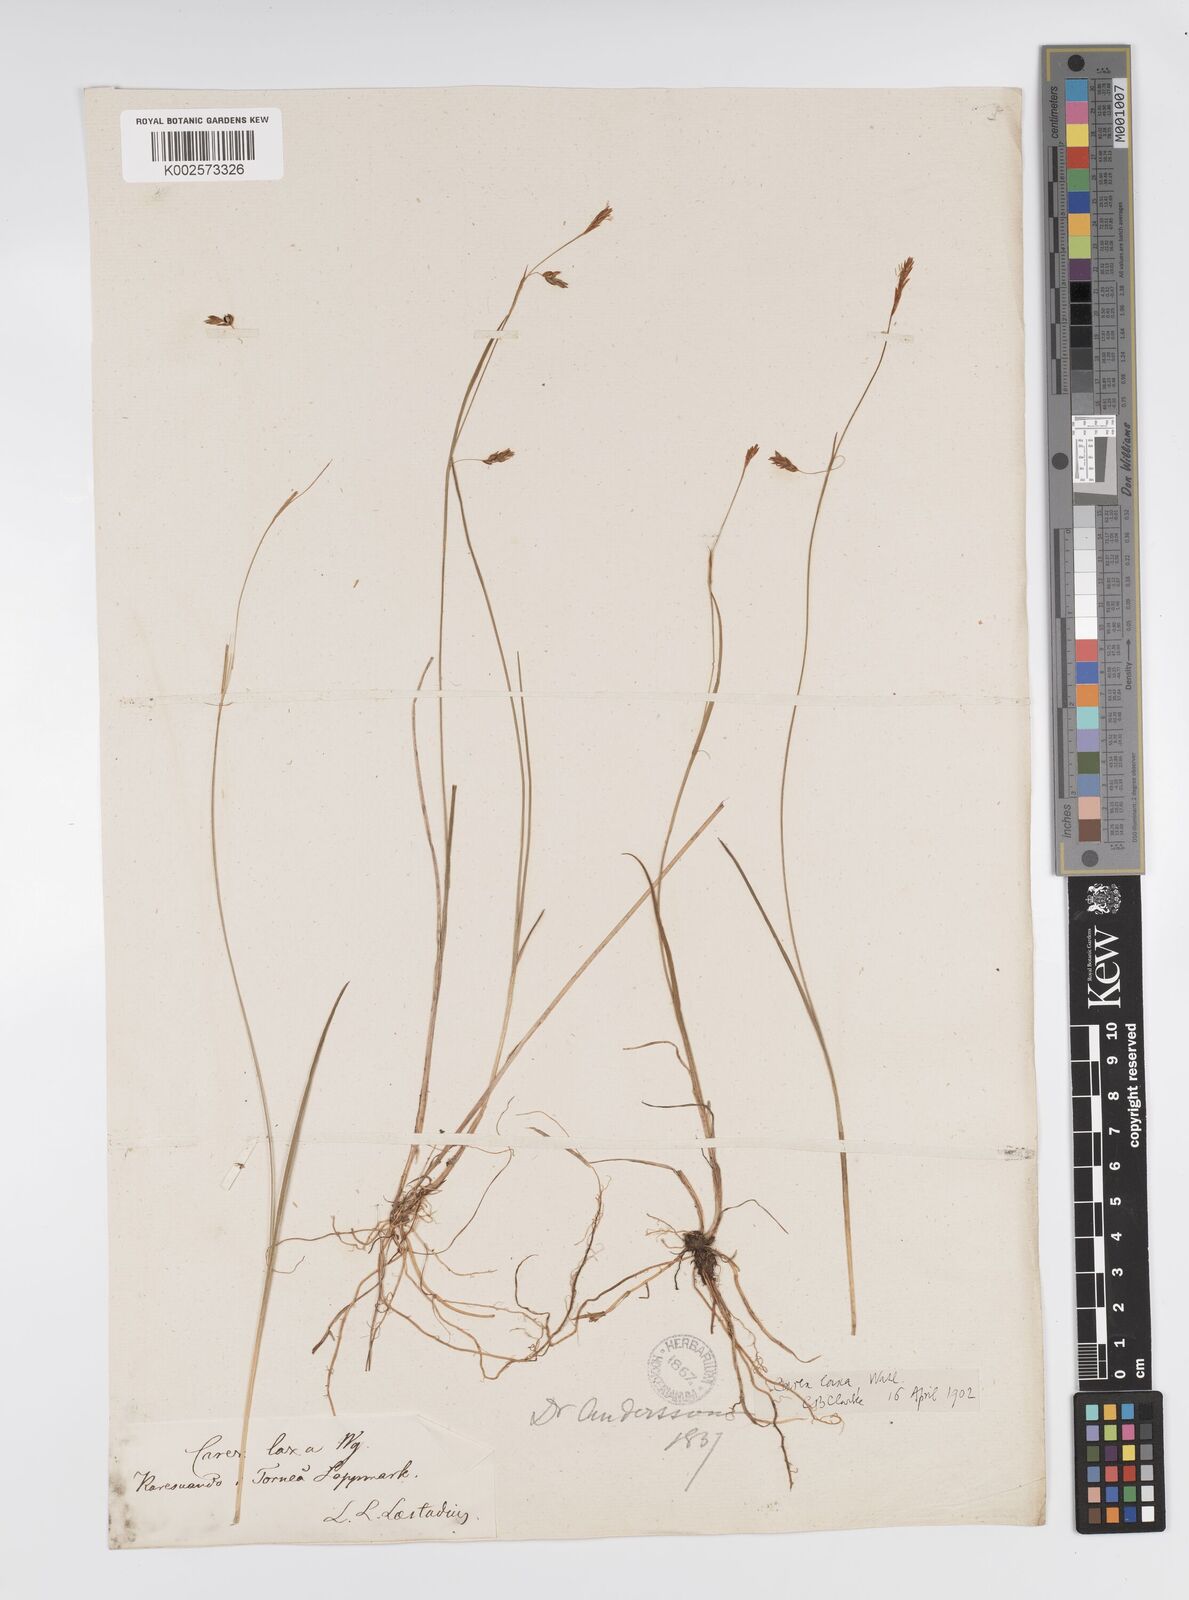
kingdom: Plantae
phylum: Tracheophyta
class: Liliopsida
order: Poales
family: Cyperaceae
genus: Carex
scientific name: Carex laxa
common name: Weak sedge
